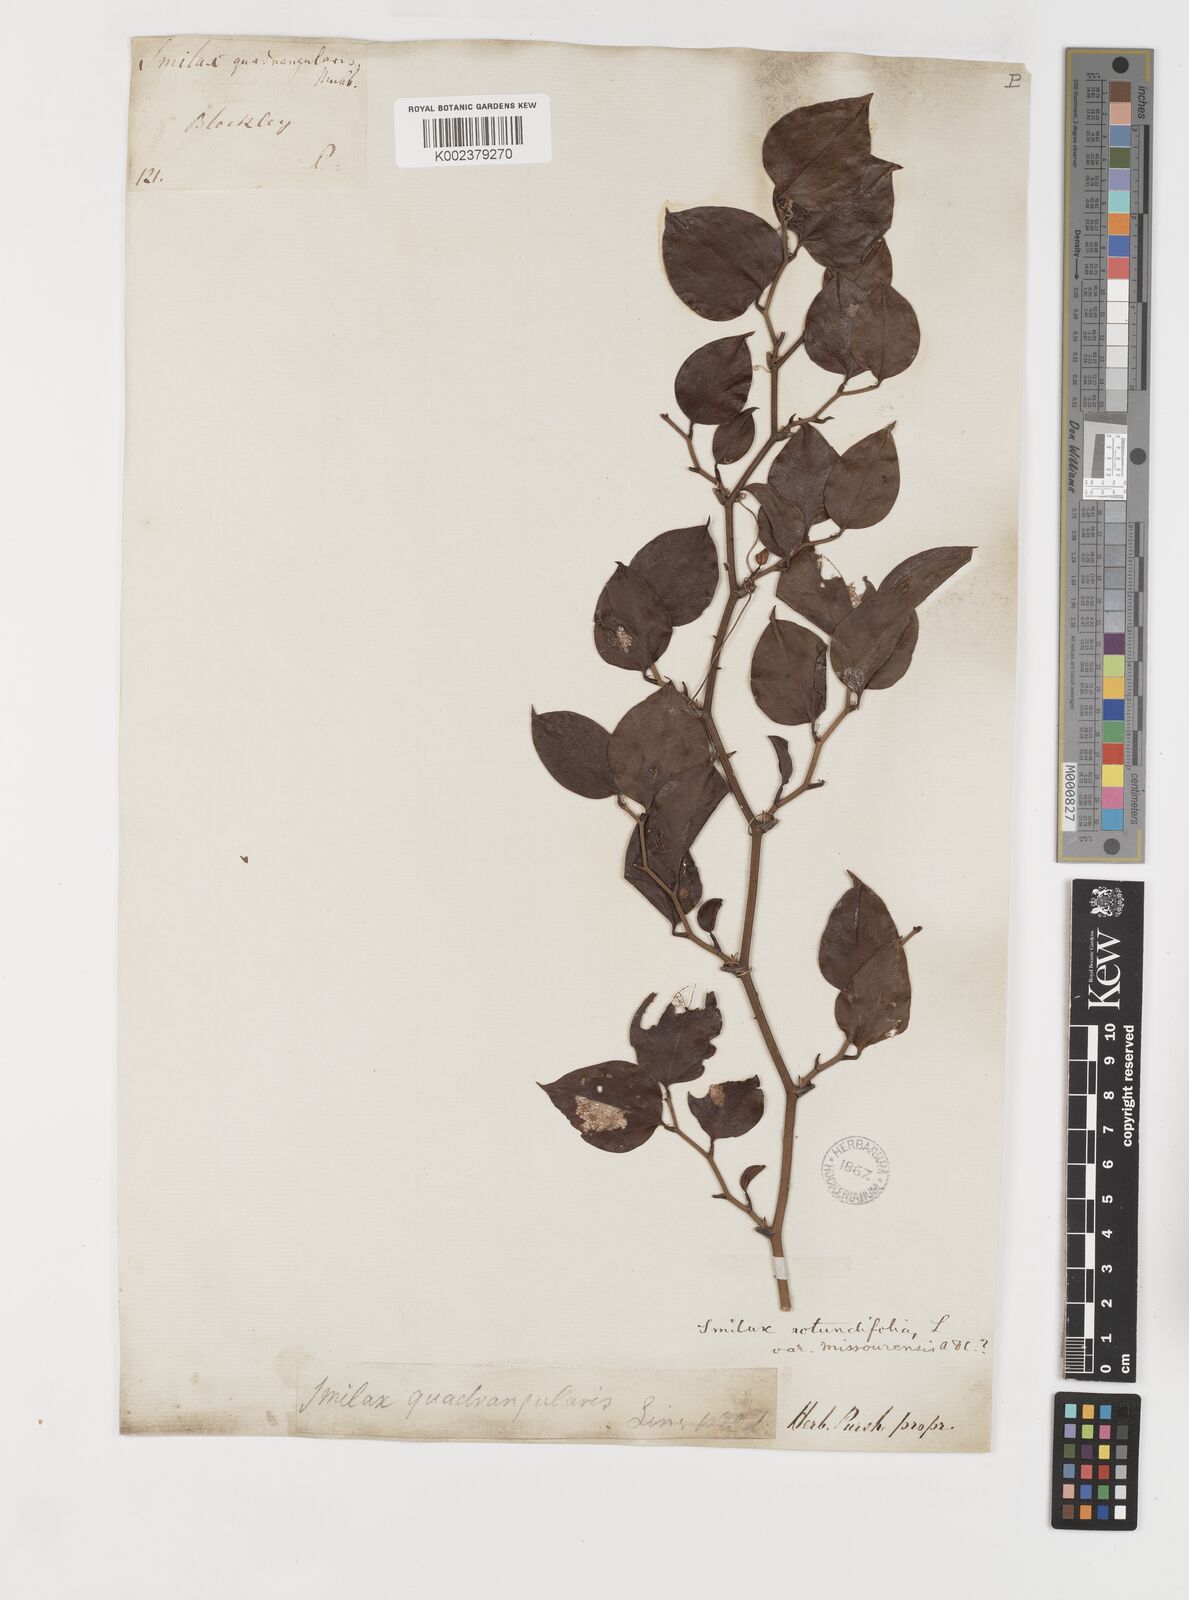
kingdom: Plantae
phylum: Tracheophyta
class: Liliopsida
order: Liliales
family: Smilacaceae
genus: Smilax
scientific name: Smilax rotundifolia
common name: Bullbriar
